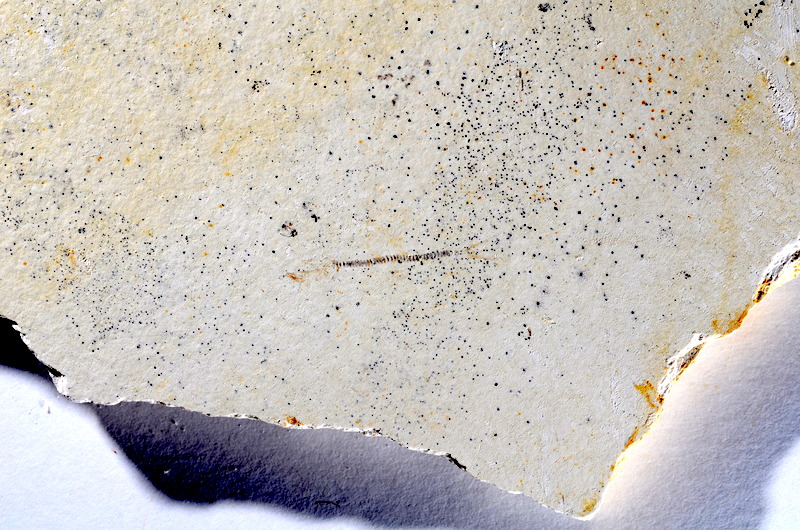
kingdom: Animalia
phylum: Chordata
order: Salmoniformes
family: Orthogonikleithridae
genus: Orthogonikleithrus
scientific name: Orthogonikleithrus hoelli
